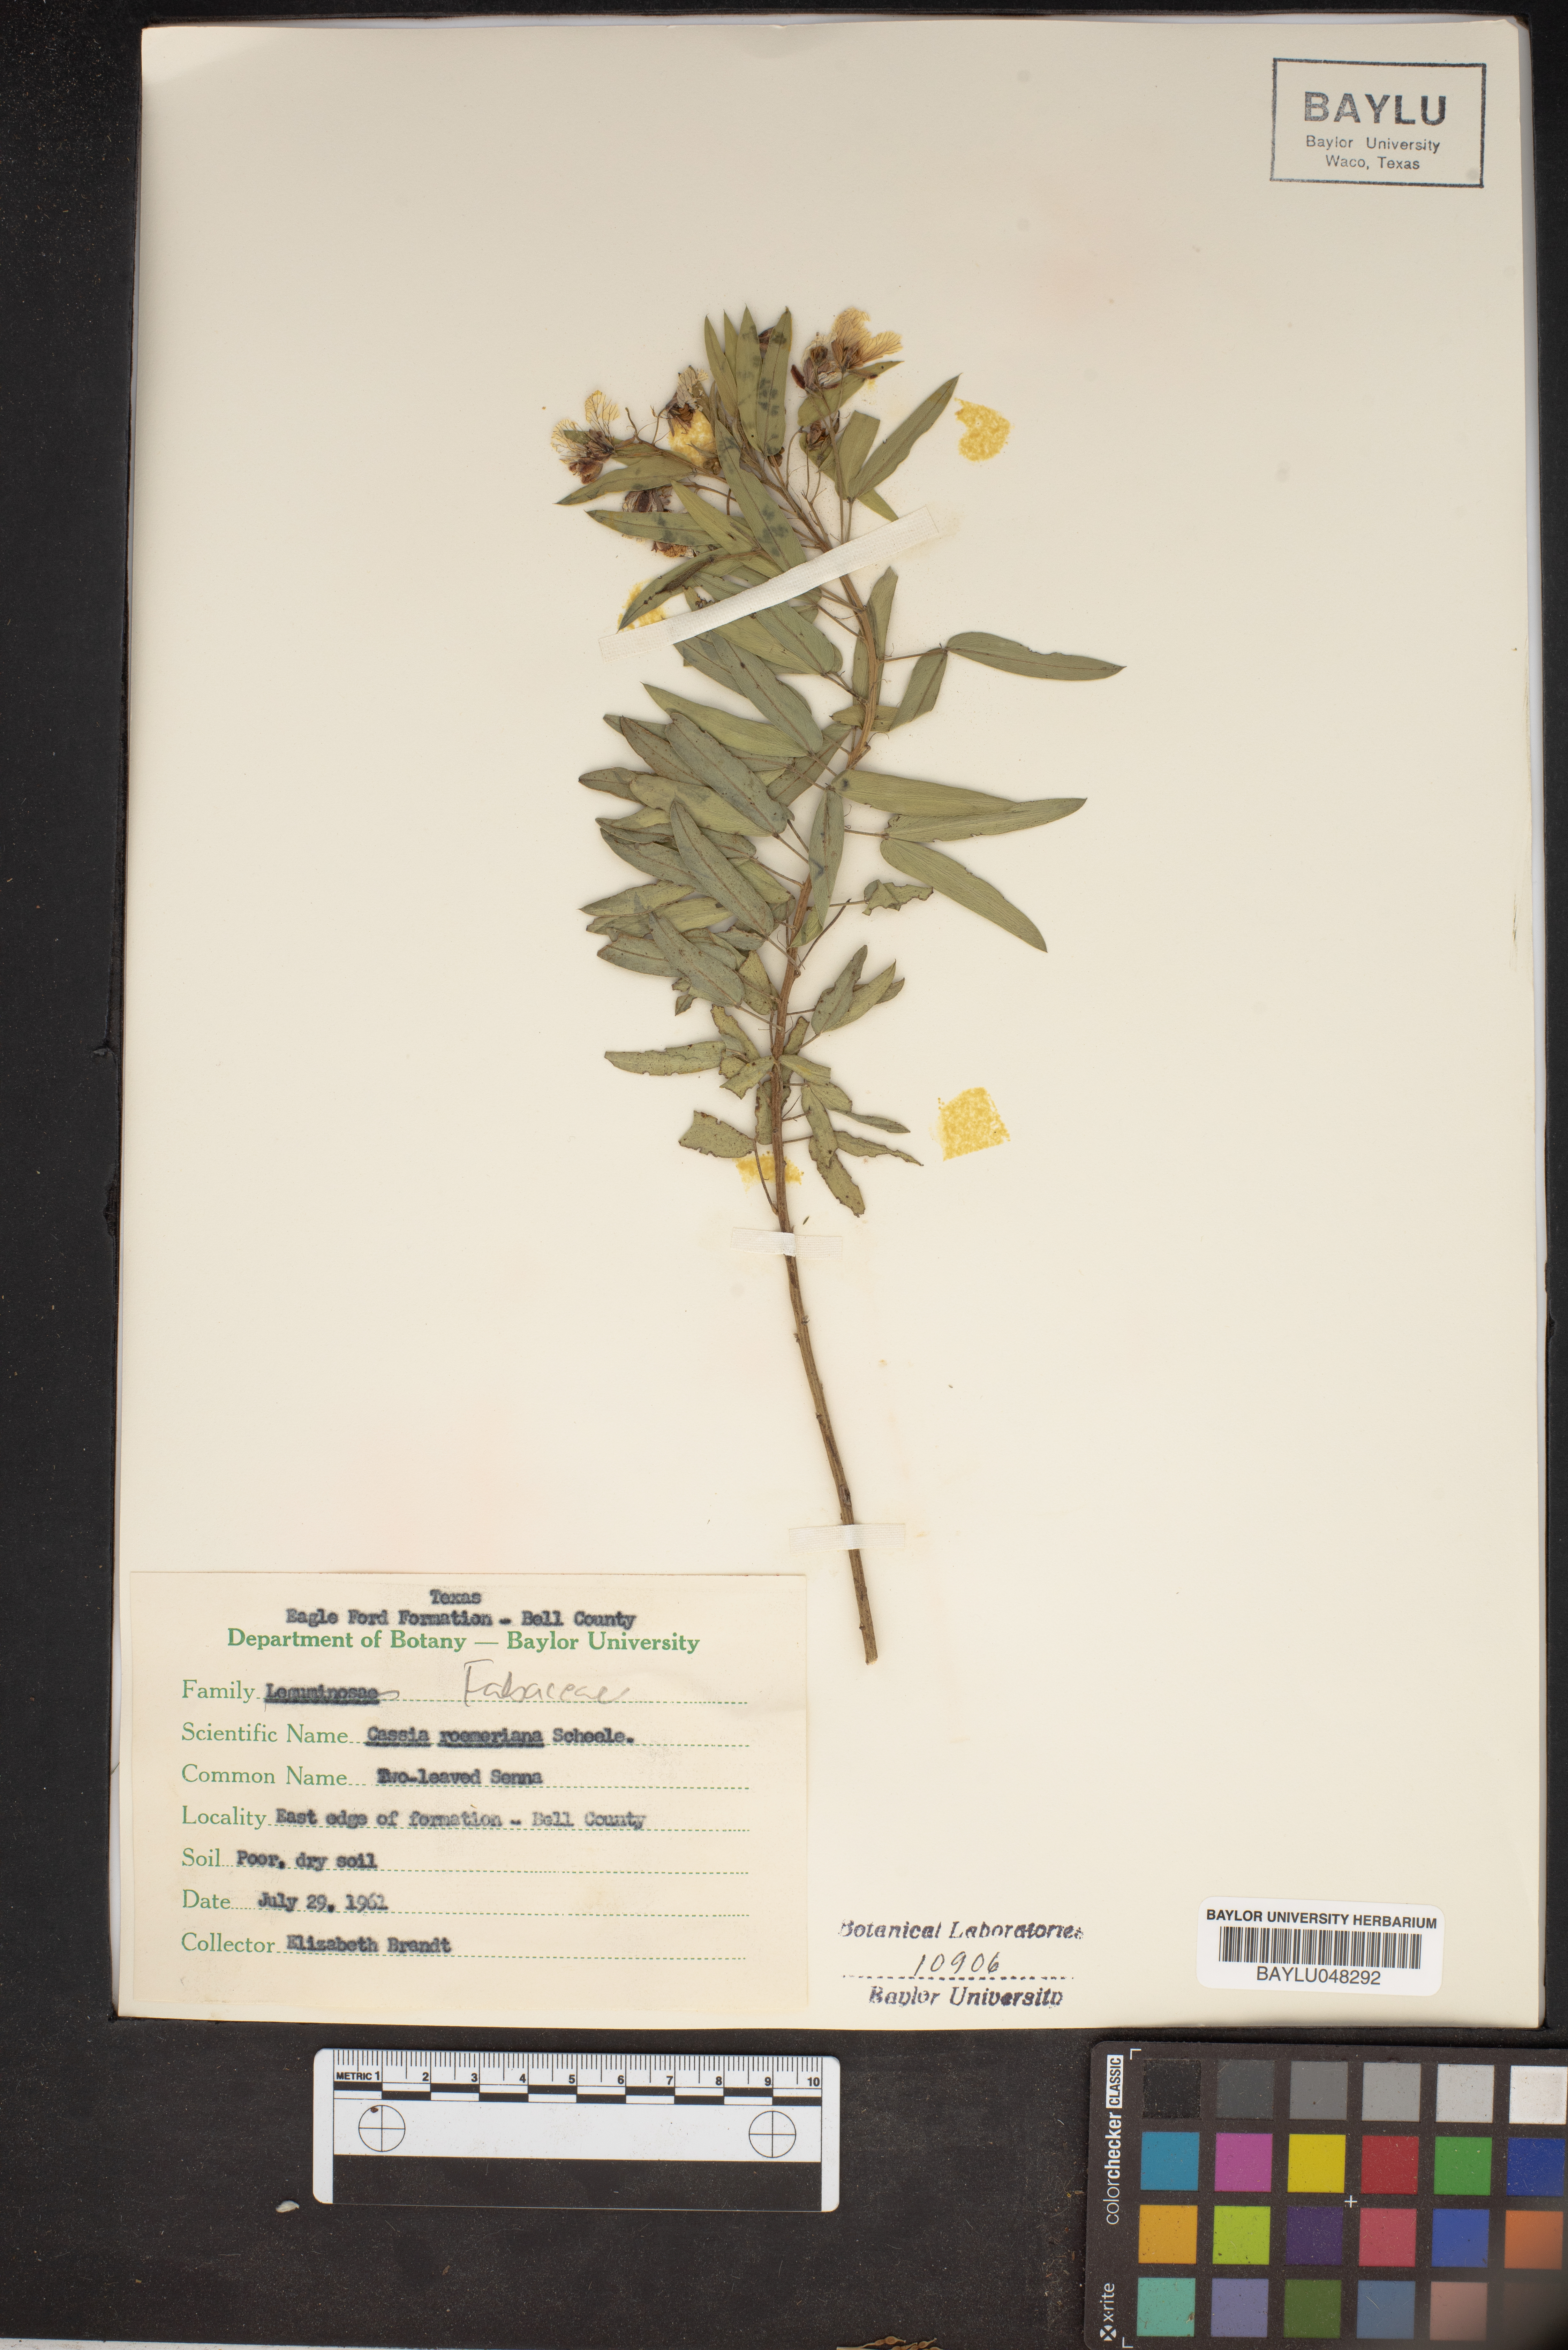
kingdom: Plantae
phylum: Tracheophyta
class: Magnoliopsida
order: Fabales
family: Fabaceae
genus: Senna
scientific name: Senna roemeriana
